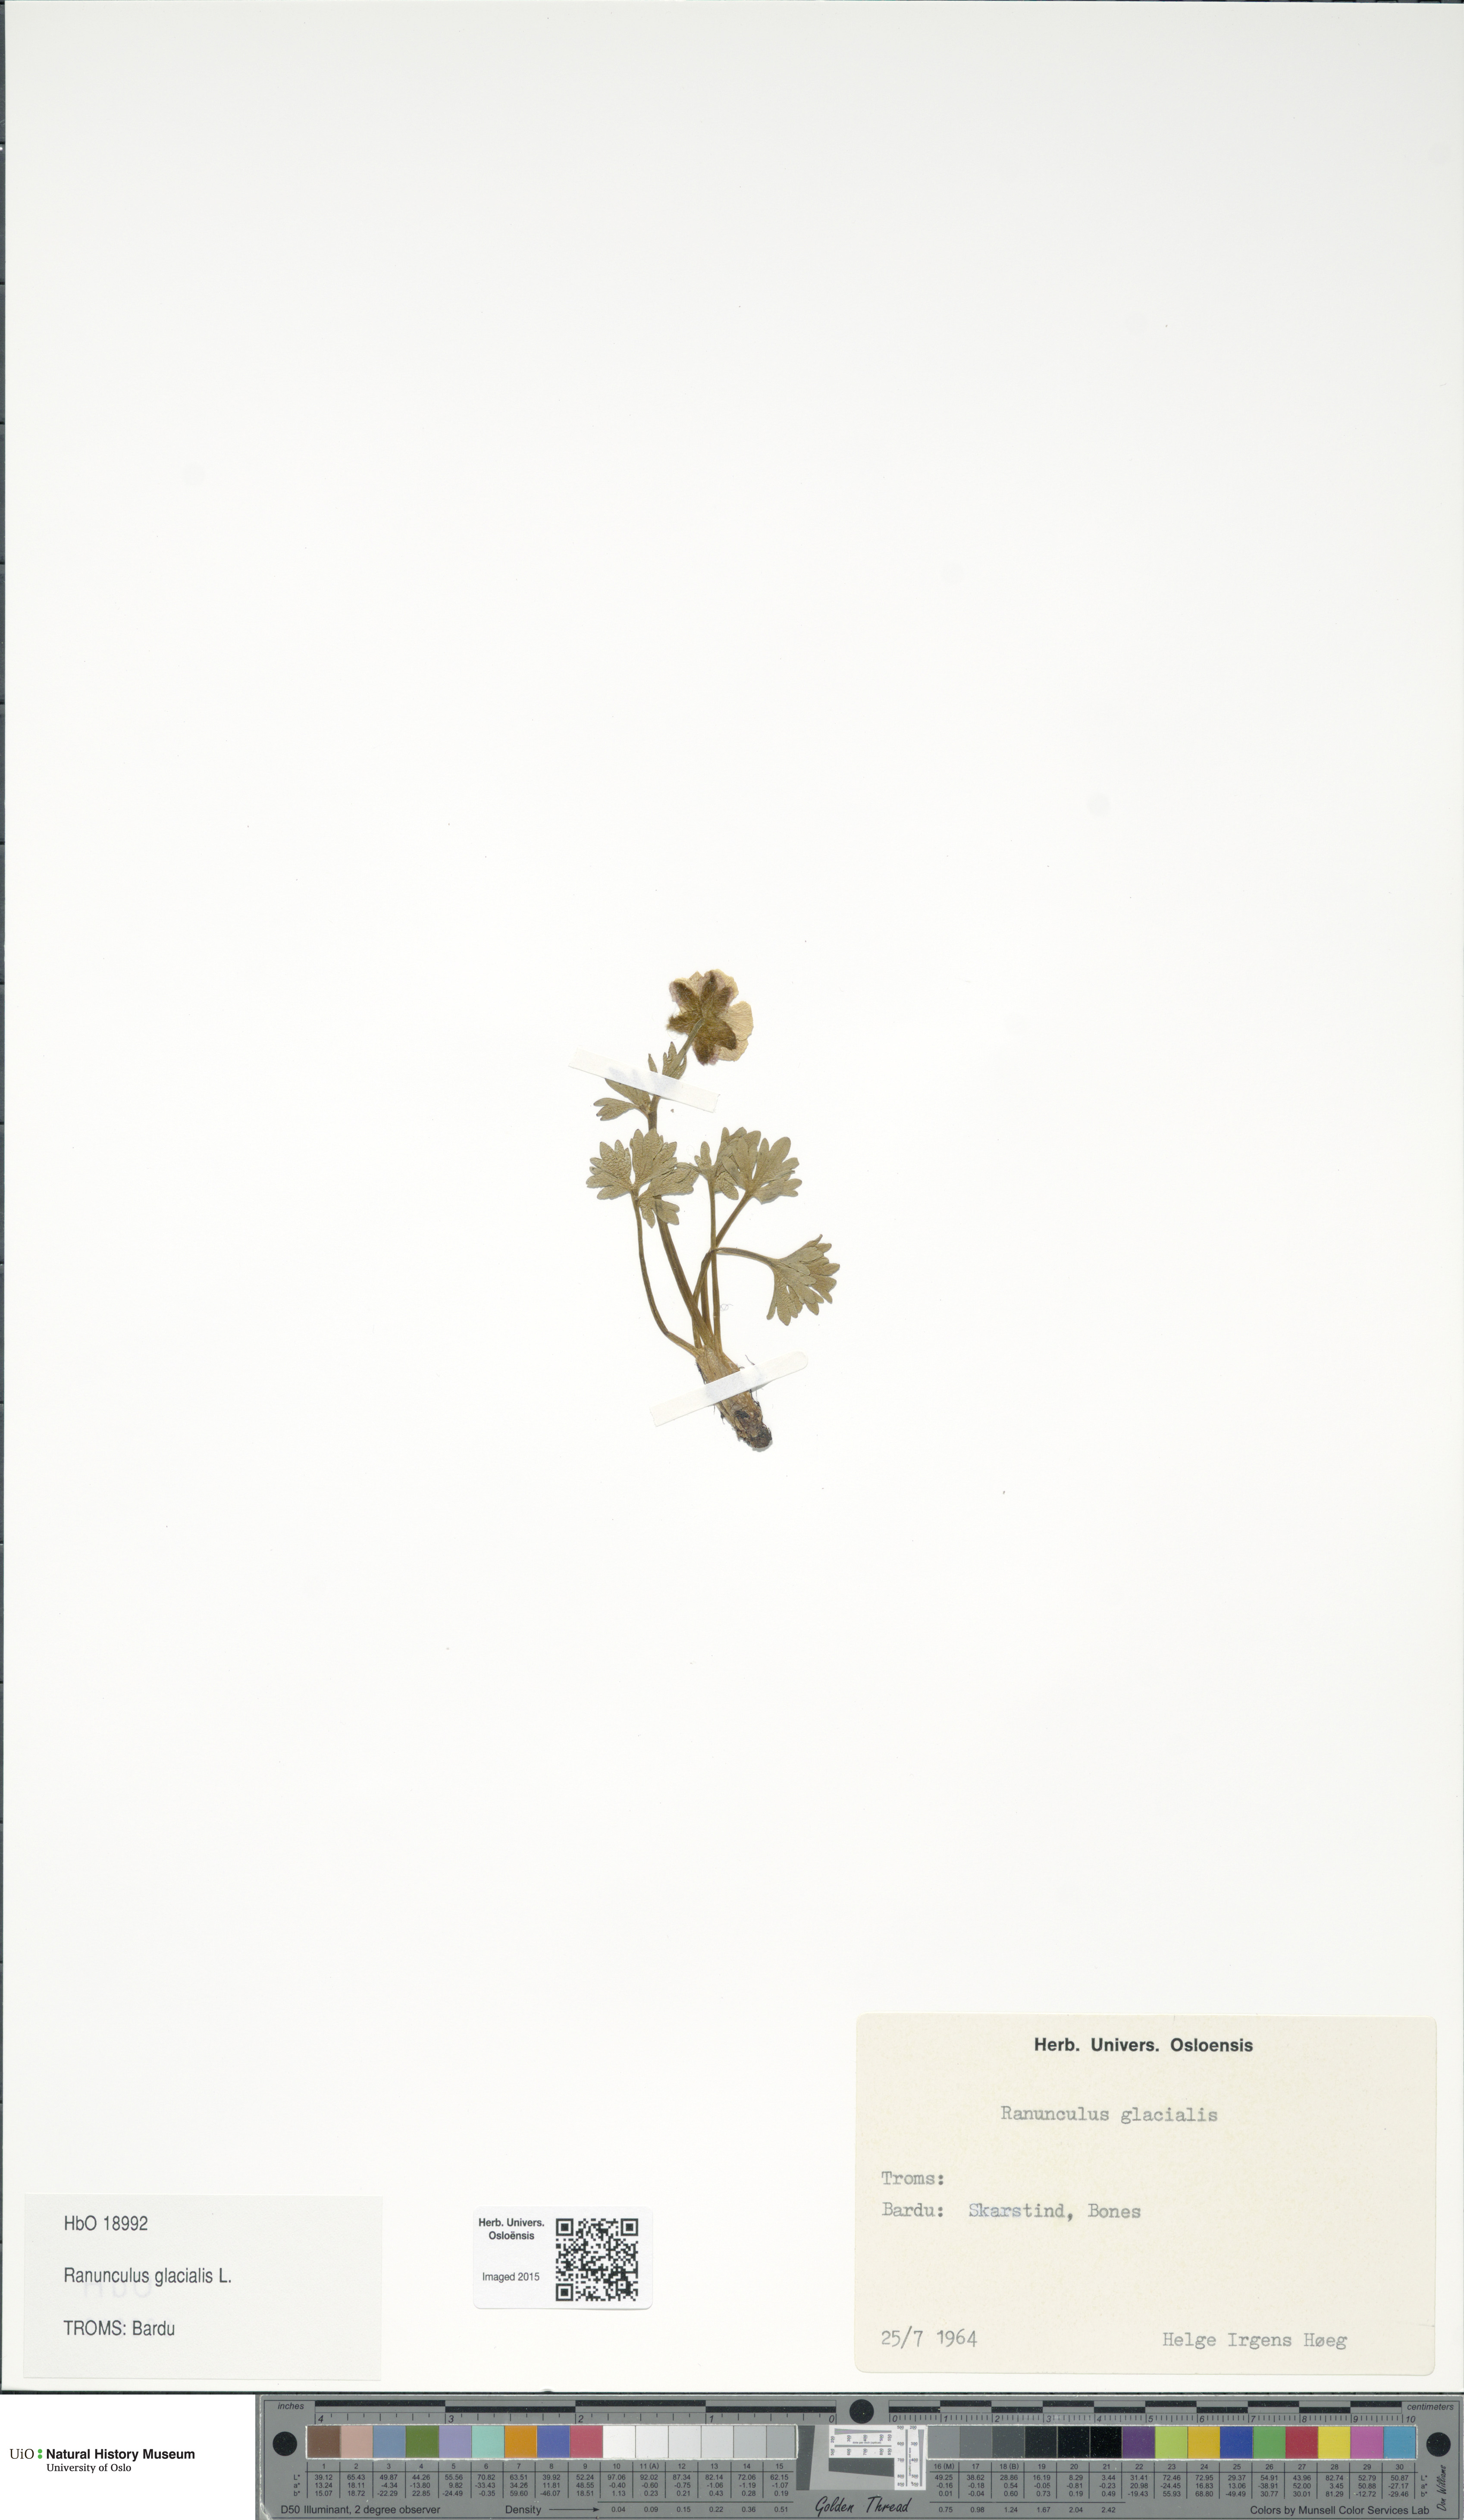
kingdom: Plantae
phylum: Tracheophyta
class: Magnoliopsida
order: Ranunculales
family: Ranunculaceae
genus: Ranunculus
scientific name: Ranunculus glacialis
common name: Glacier buttercup
